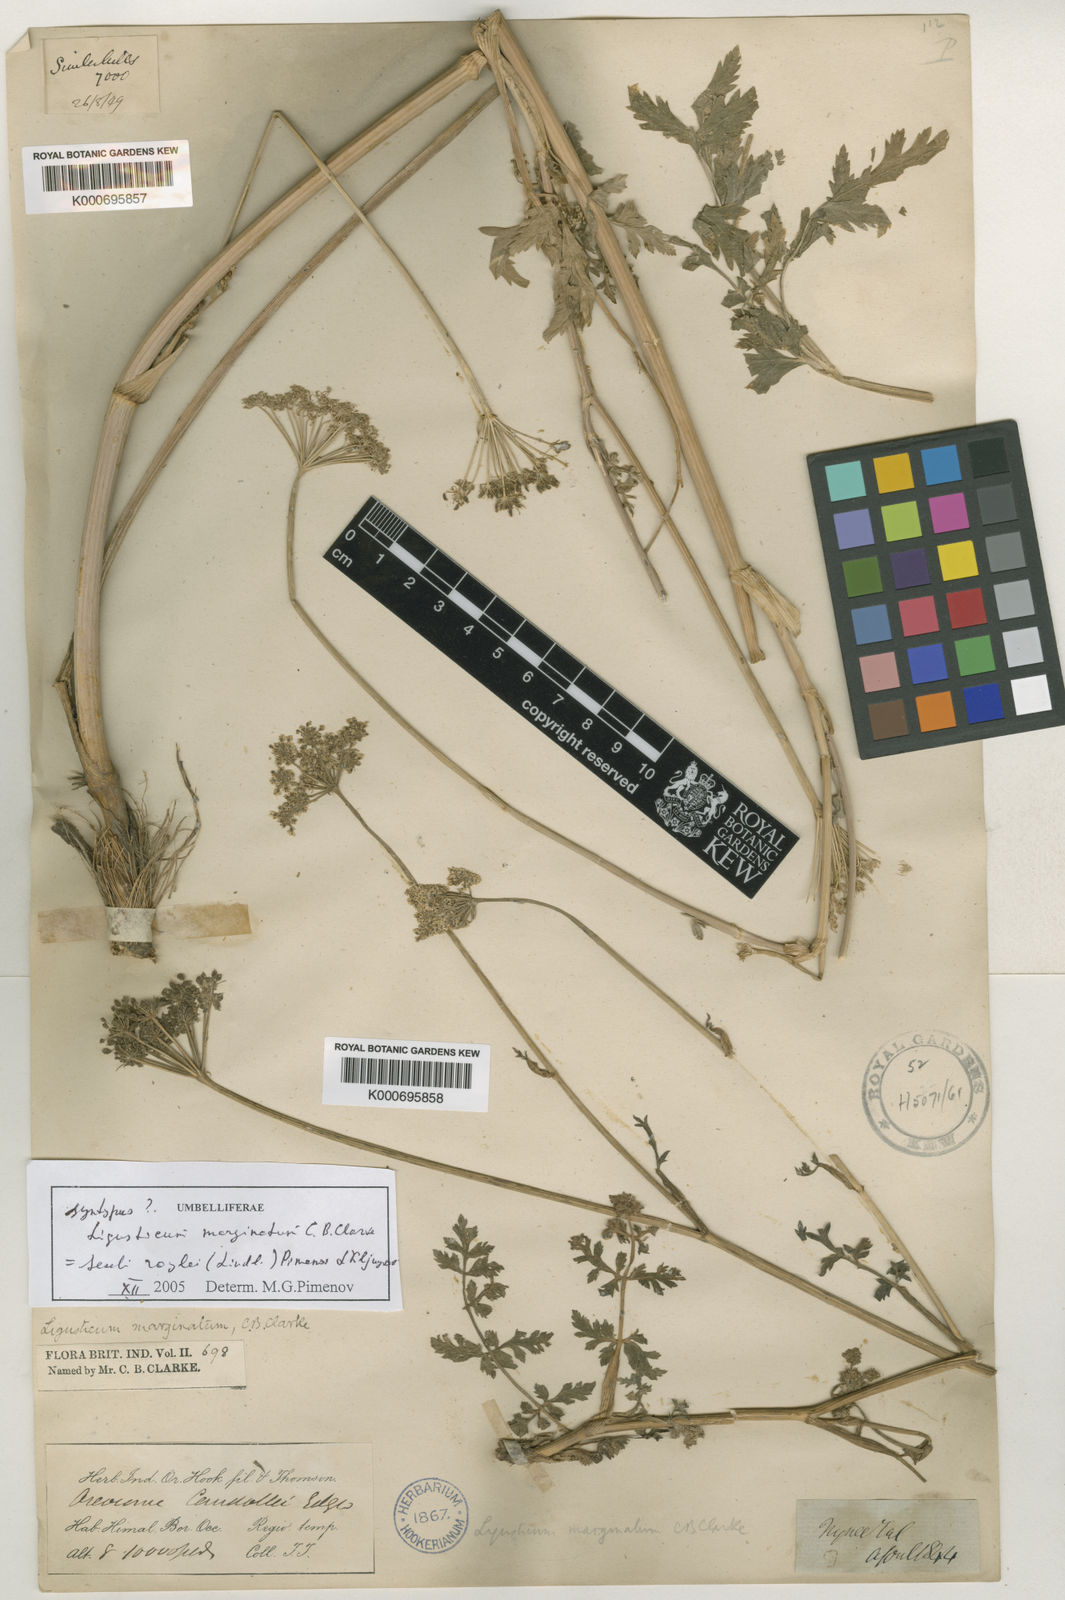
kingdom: Plantae
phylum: Tracheophyta
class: Magnoliopsida
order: Apiales
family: Apiaceae
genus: Seseli
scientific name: Seseli roylei
